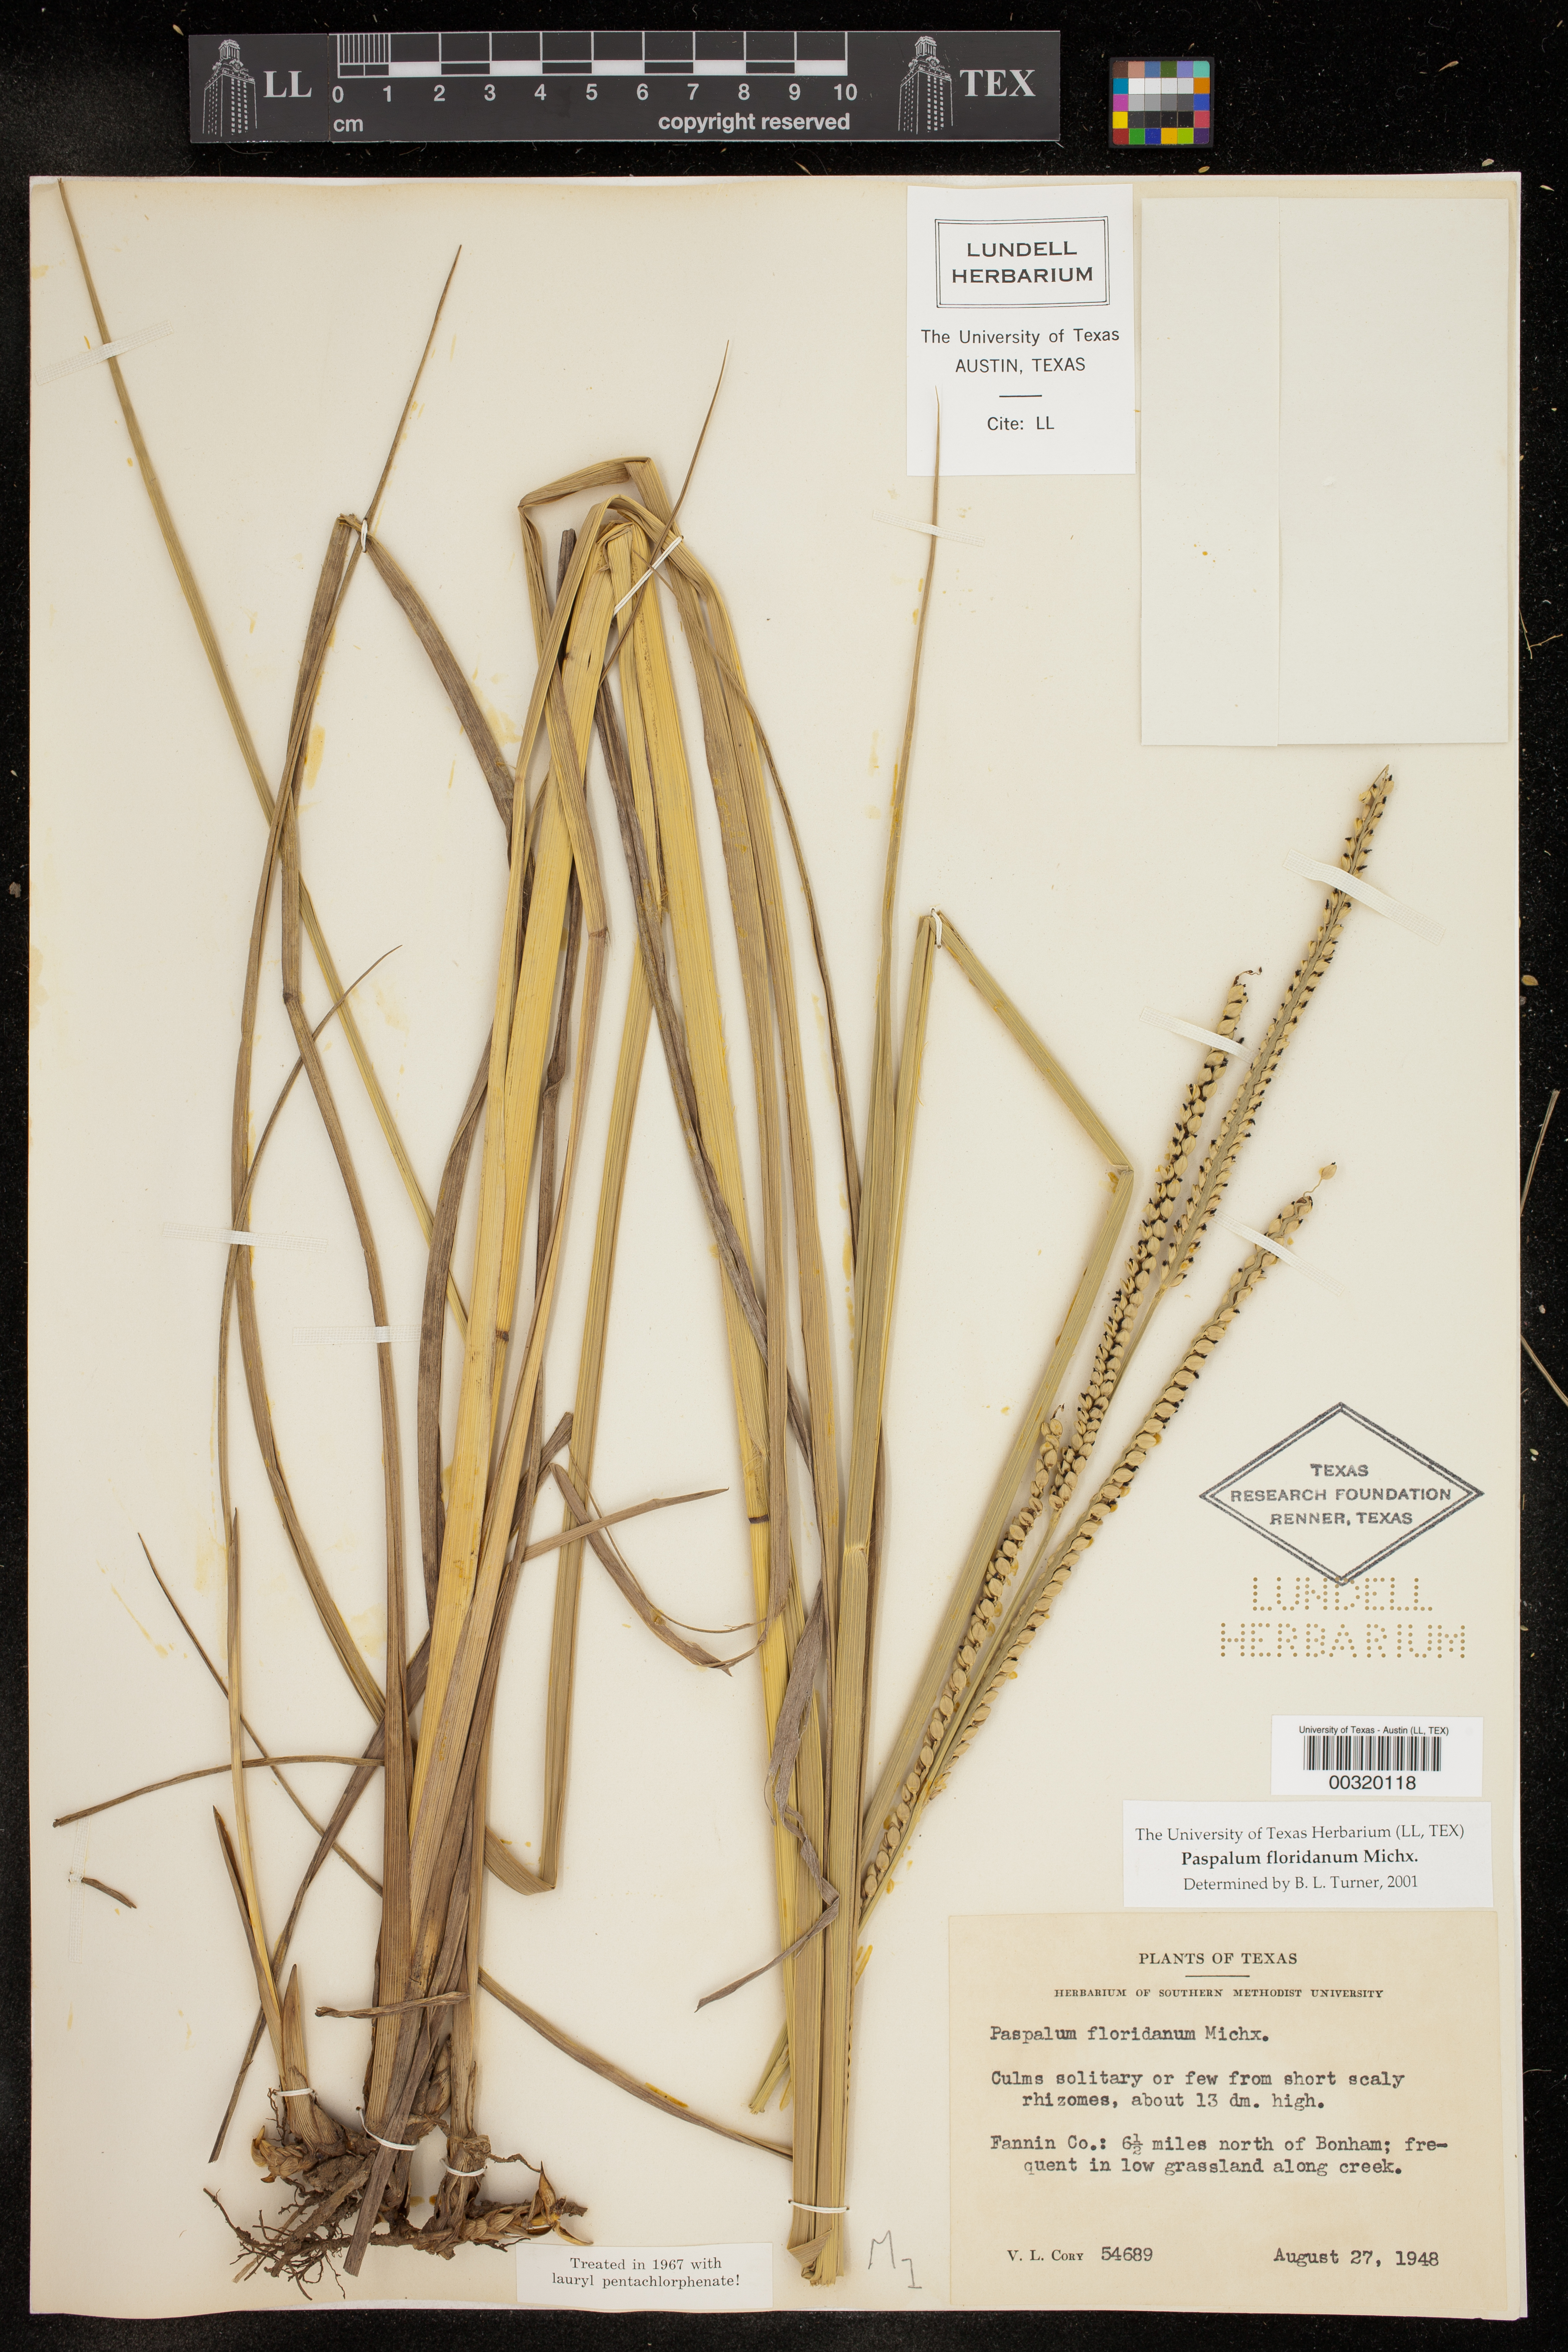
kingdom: Plantae
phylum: Tracheophyta
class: Liliopsida
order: Poales
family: Poaceae
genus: Paspalum
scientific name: Paspalum floridanum
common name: Florida paspalum
